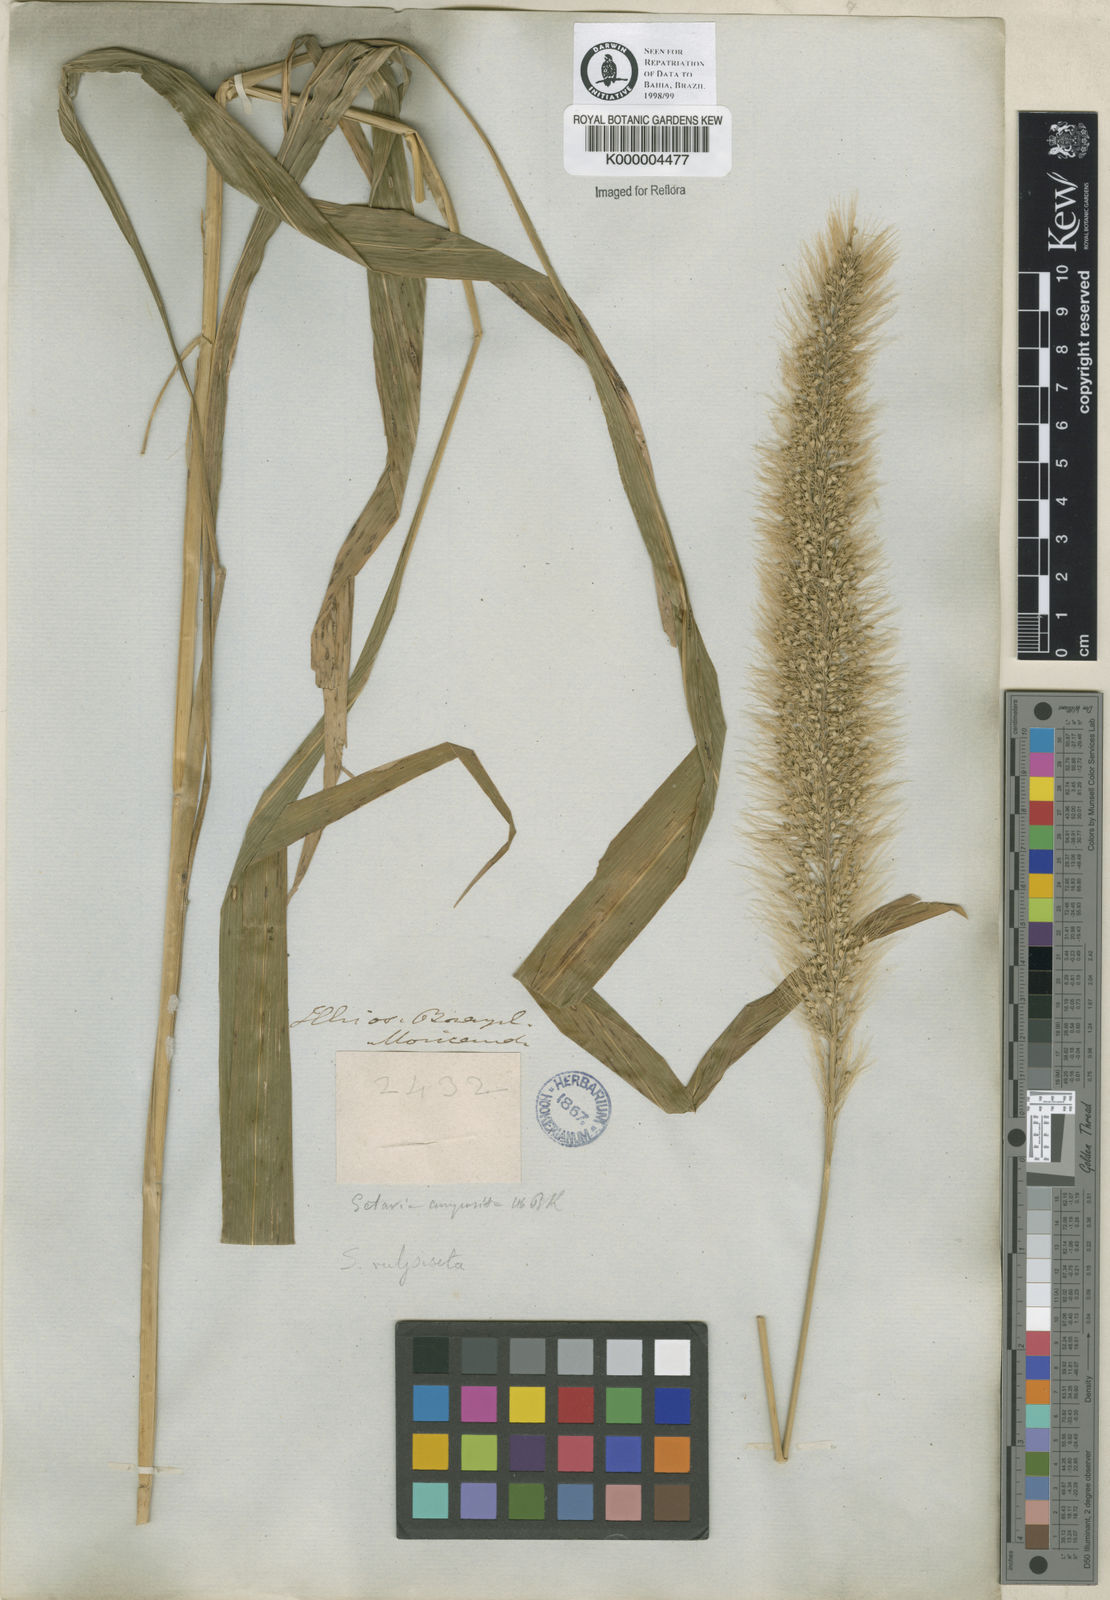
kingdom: Plantae
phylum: Tracheophyta
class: Liliopsida
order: Poales
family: Poaceae
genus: Setaria
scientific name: Setaria vulpiseta
